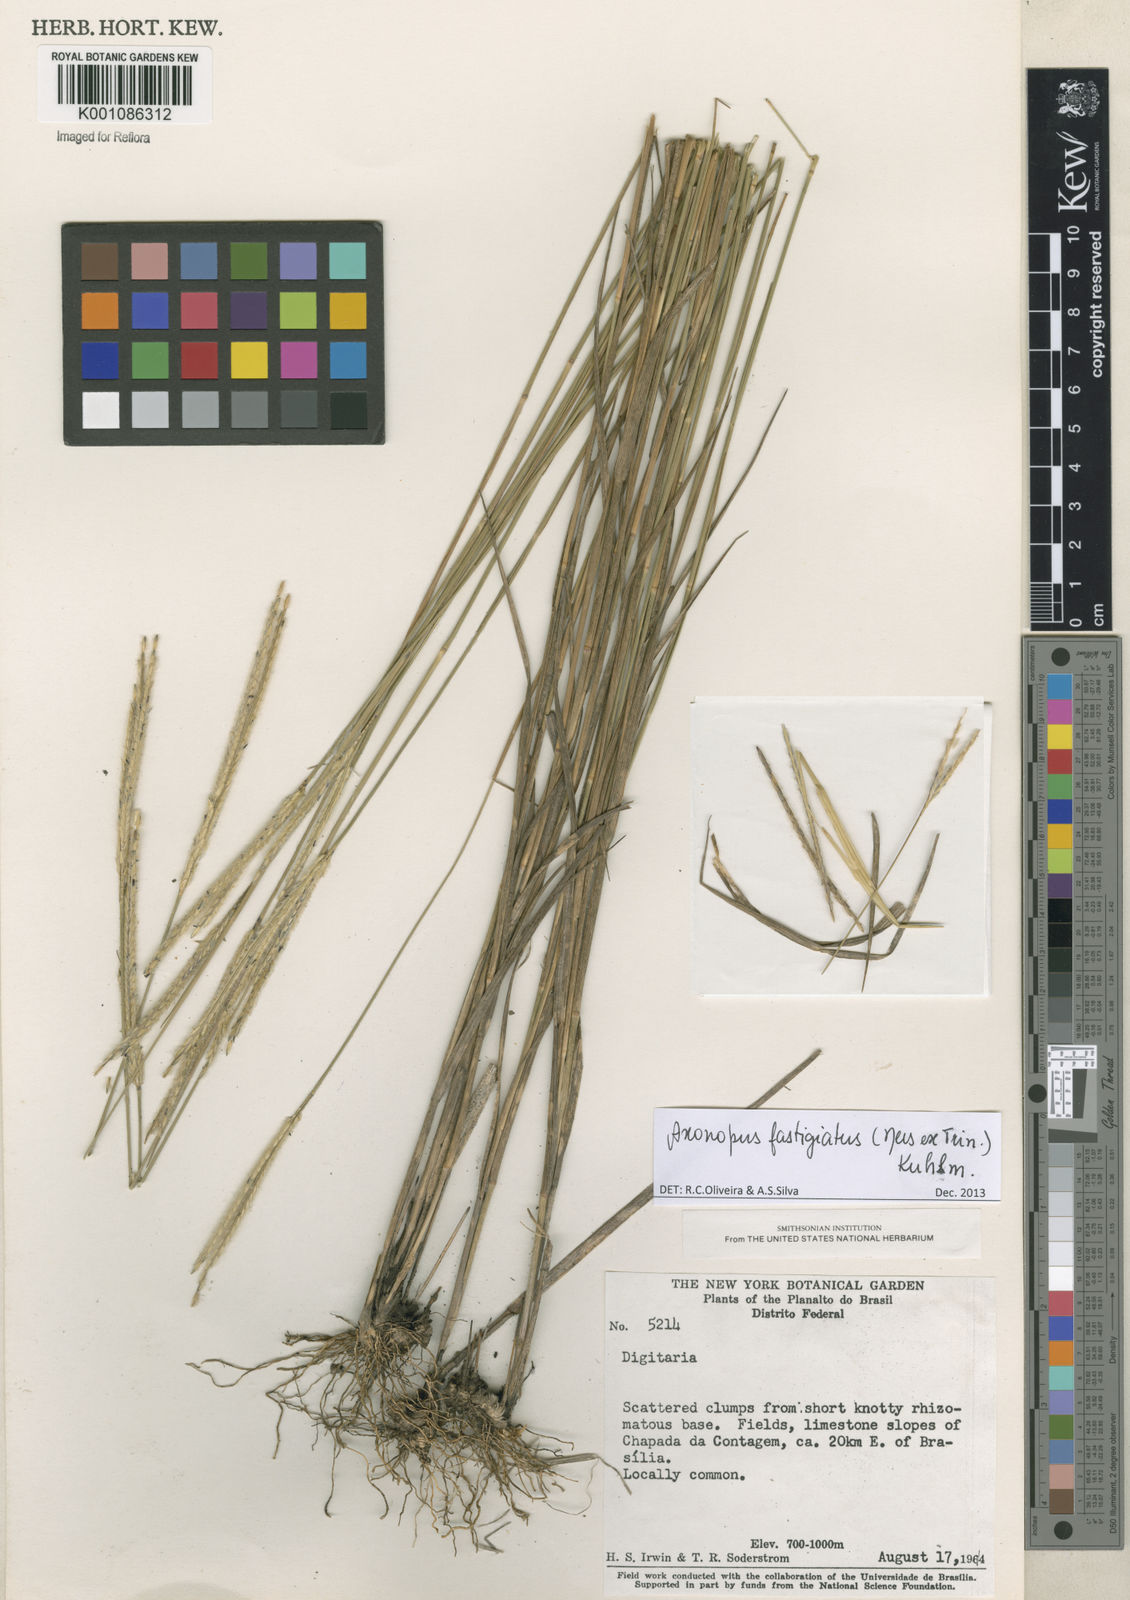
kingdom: Plantae
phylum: Tracheophyta
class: Liliopsida
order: Poales
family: Poaceae
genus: Axonopus
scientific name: Axonopus fastigiatus
